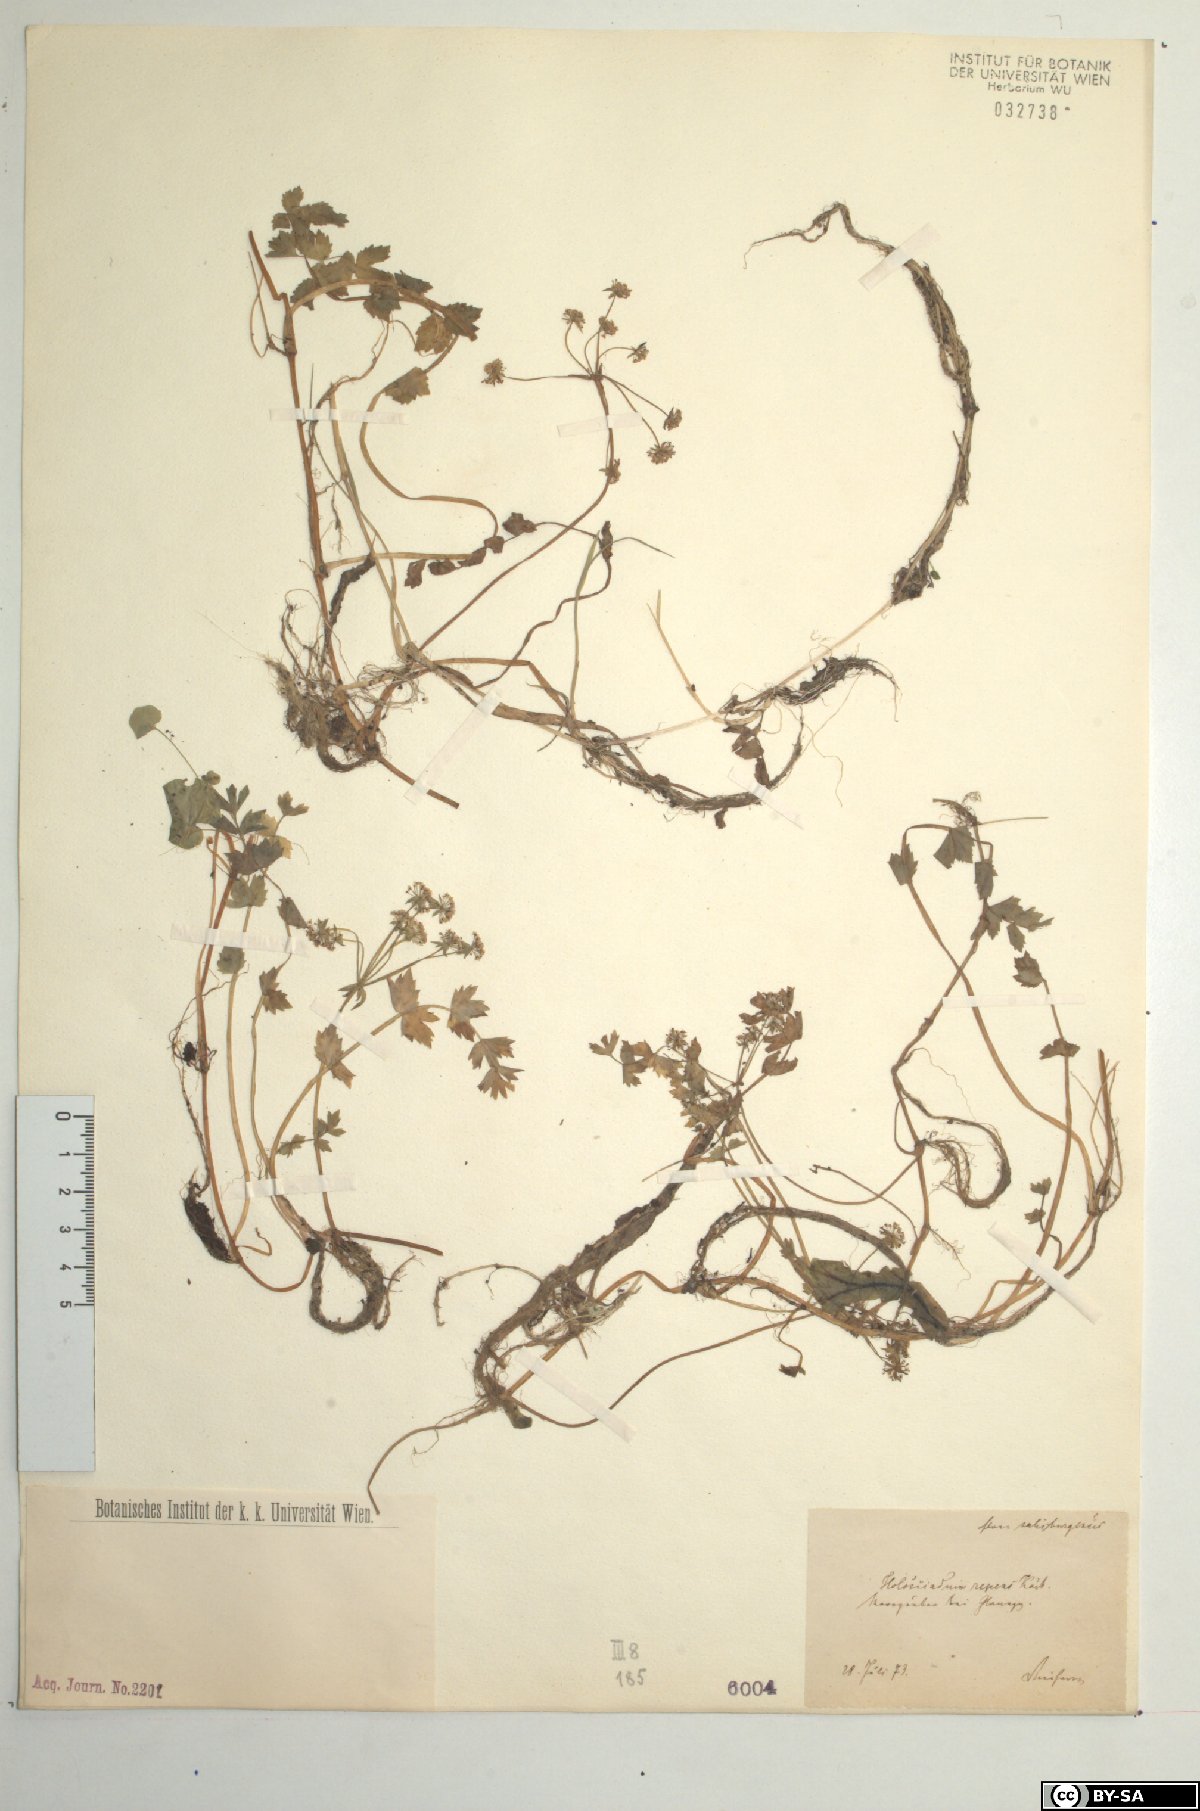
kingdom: Plantae
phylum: Tracheophyta
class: Magnoliopsida
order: Apiales
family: Apiaceae
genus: Helosciadium
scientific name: Helosciadium repens
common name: Creeping marshwort
